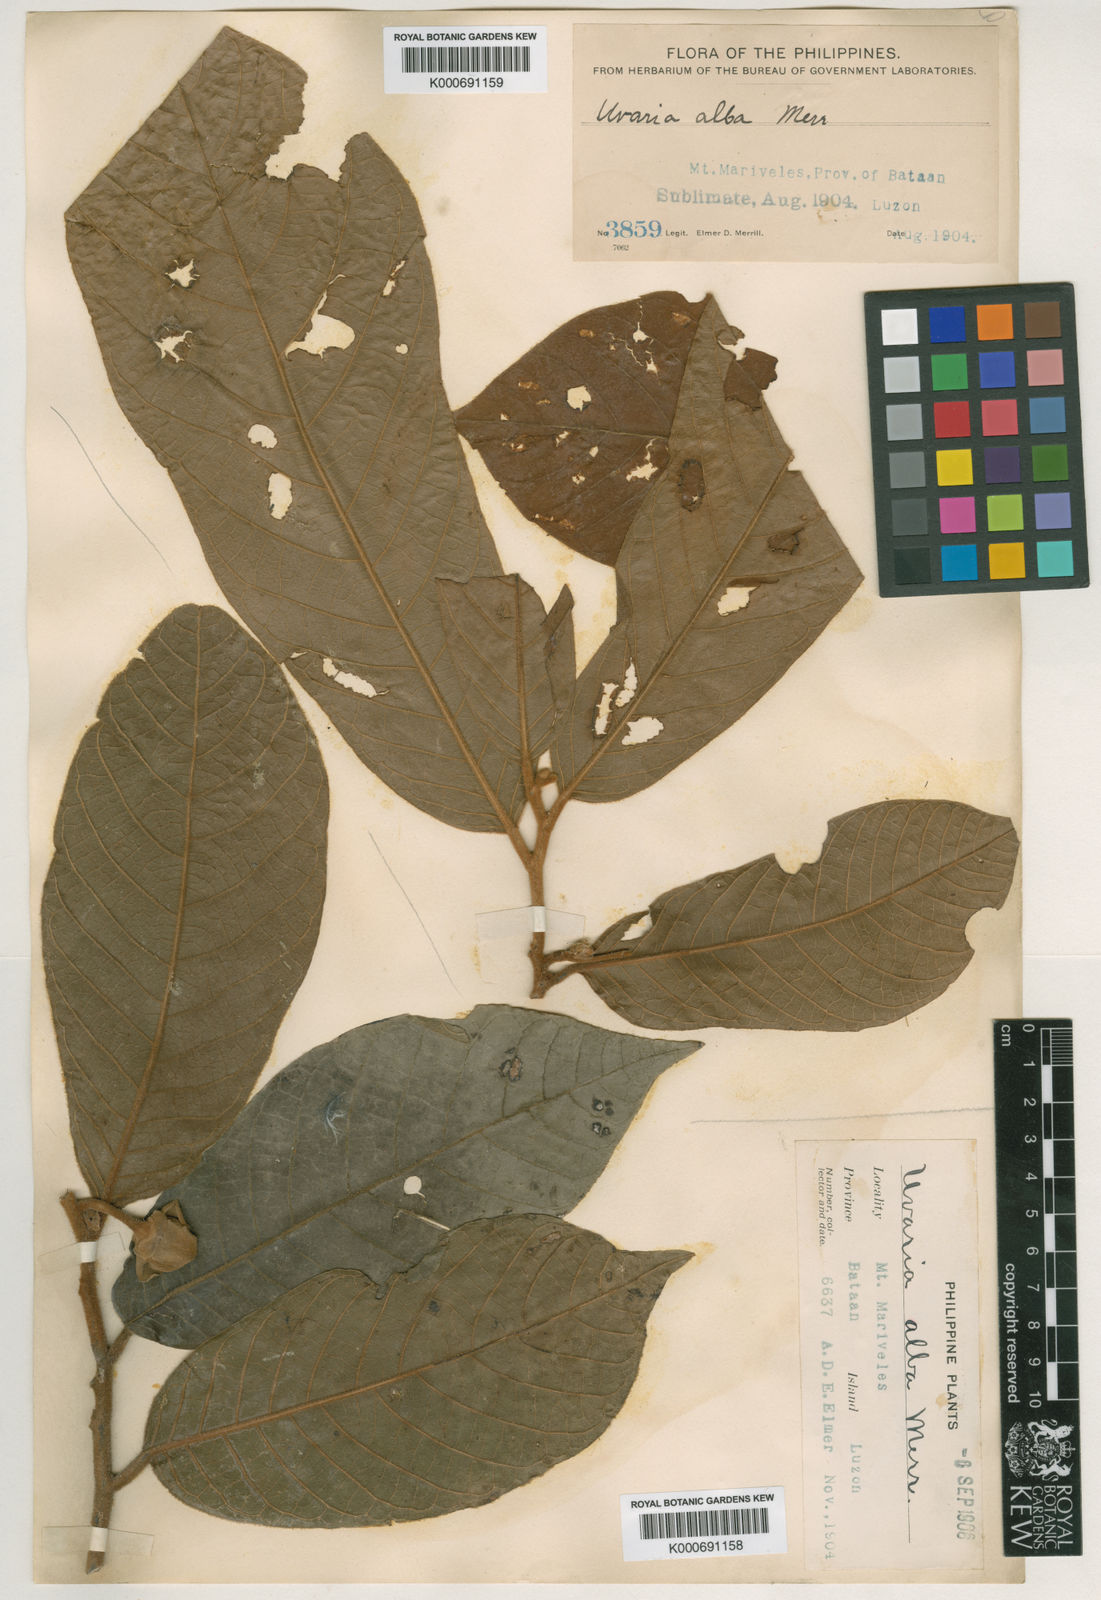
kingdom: Plantae
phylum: Tracheophyta
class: Magnoliopsida
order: Magnoliales
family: Annonaceae
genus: Uvaria
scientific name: Uvaria alba
